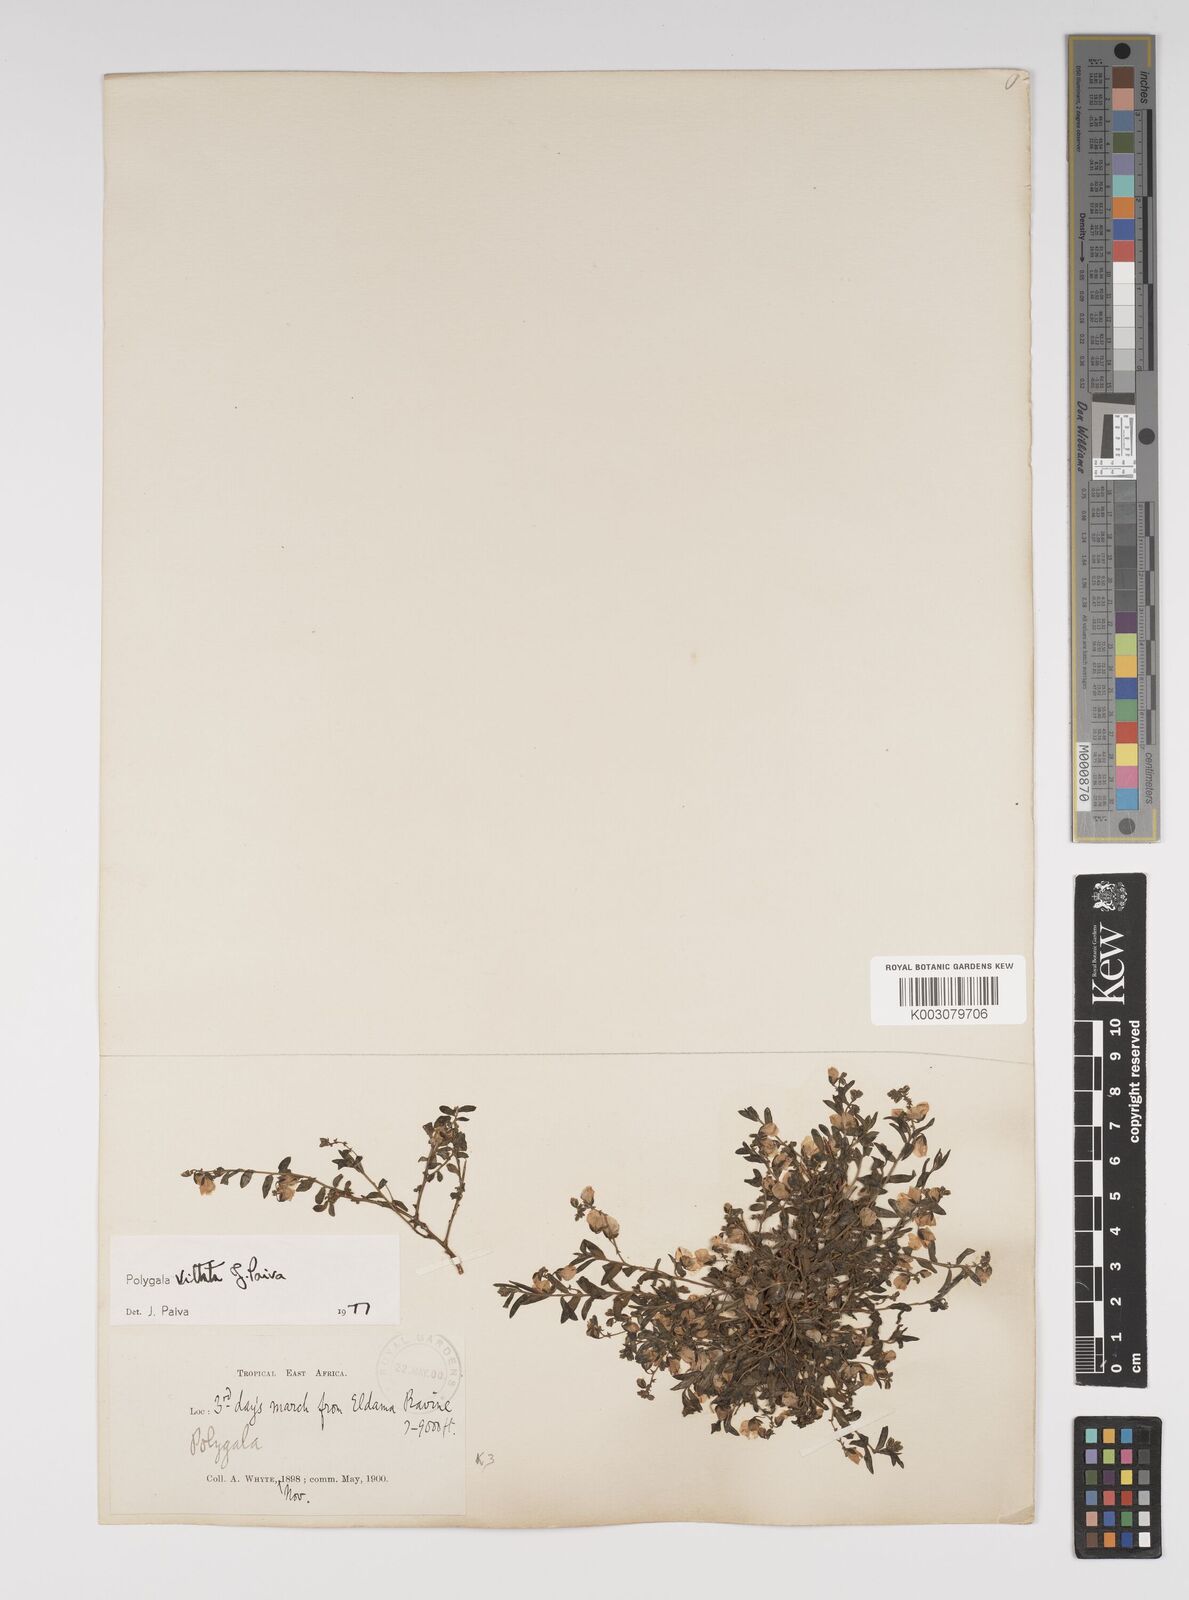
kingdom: Plantae
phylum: Tracheophyta
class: Magnoliopsida
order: Fabales
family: Polygalaceae
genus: Polygala
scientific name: Polygala vittata
